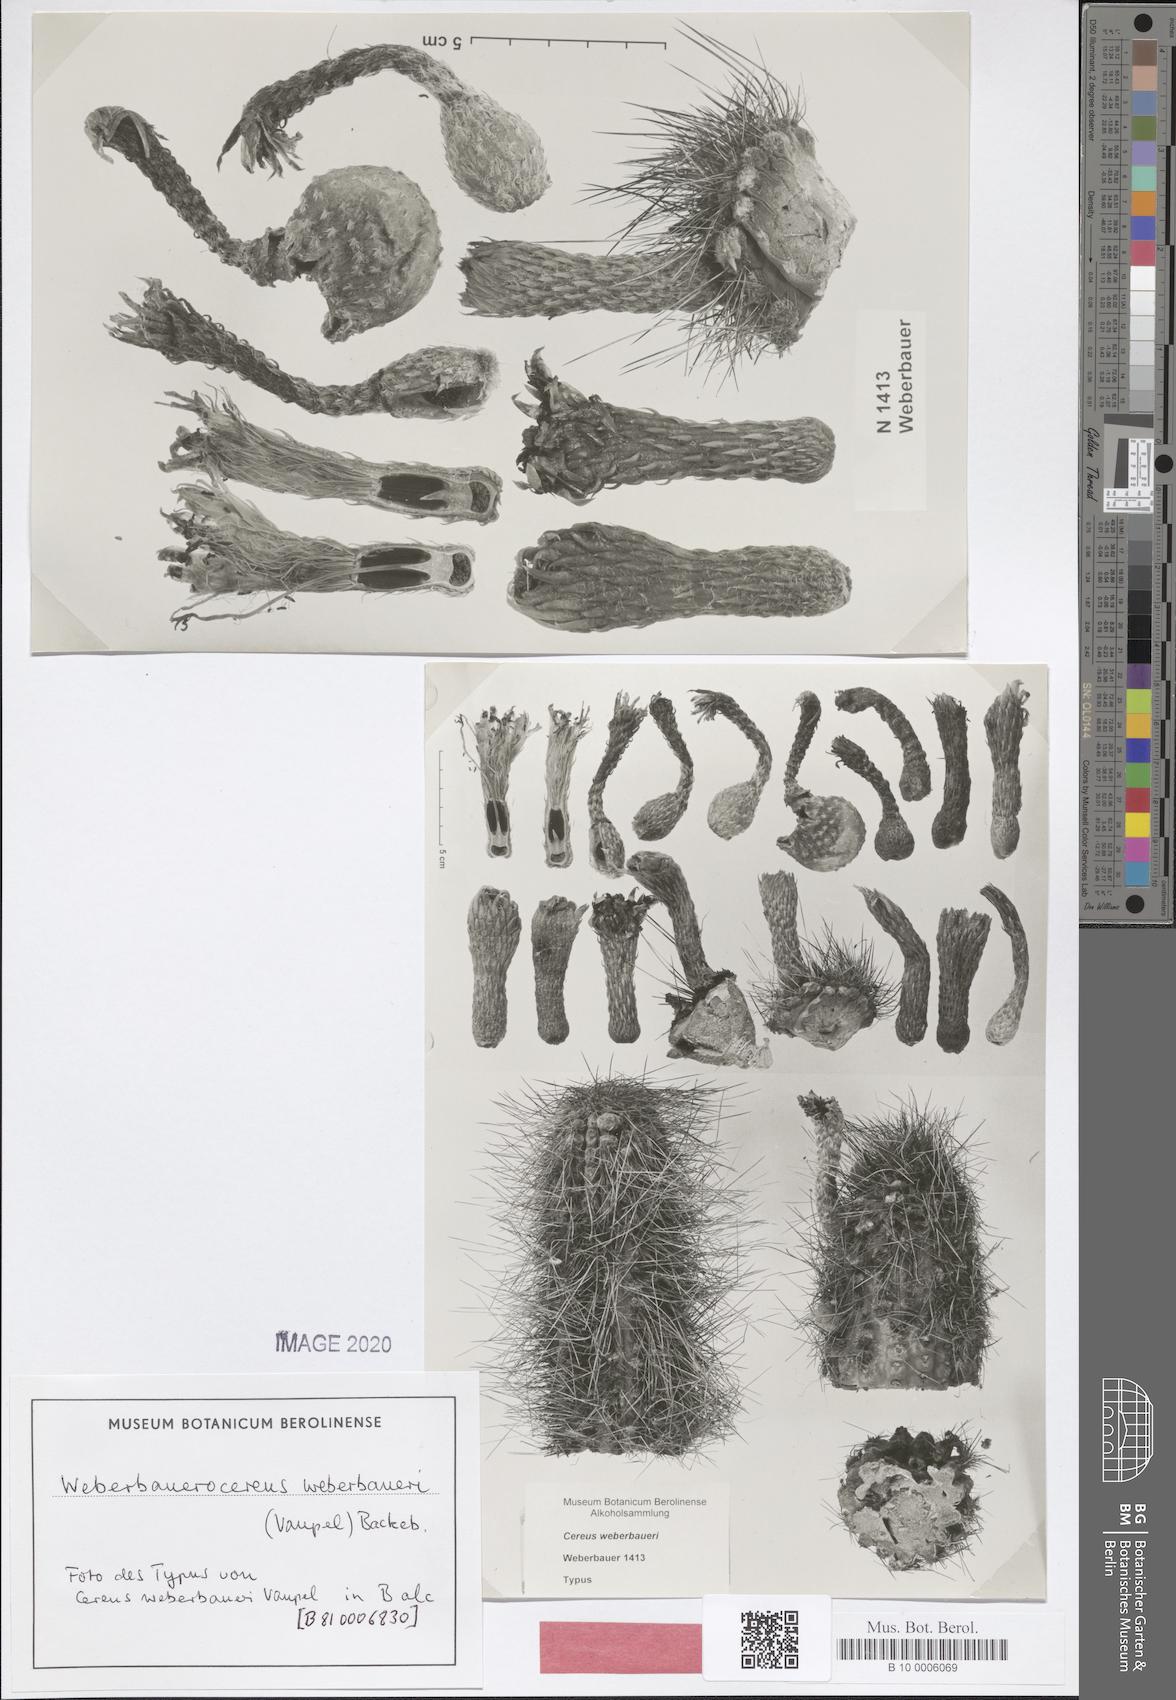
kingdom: Plantae
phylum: Tracheophyta
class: Magnoliopsida
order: Caryophyllales
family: Cactaceae
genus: Weberbauerocereus
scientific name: Weberbauerocereus weberbaueri
